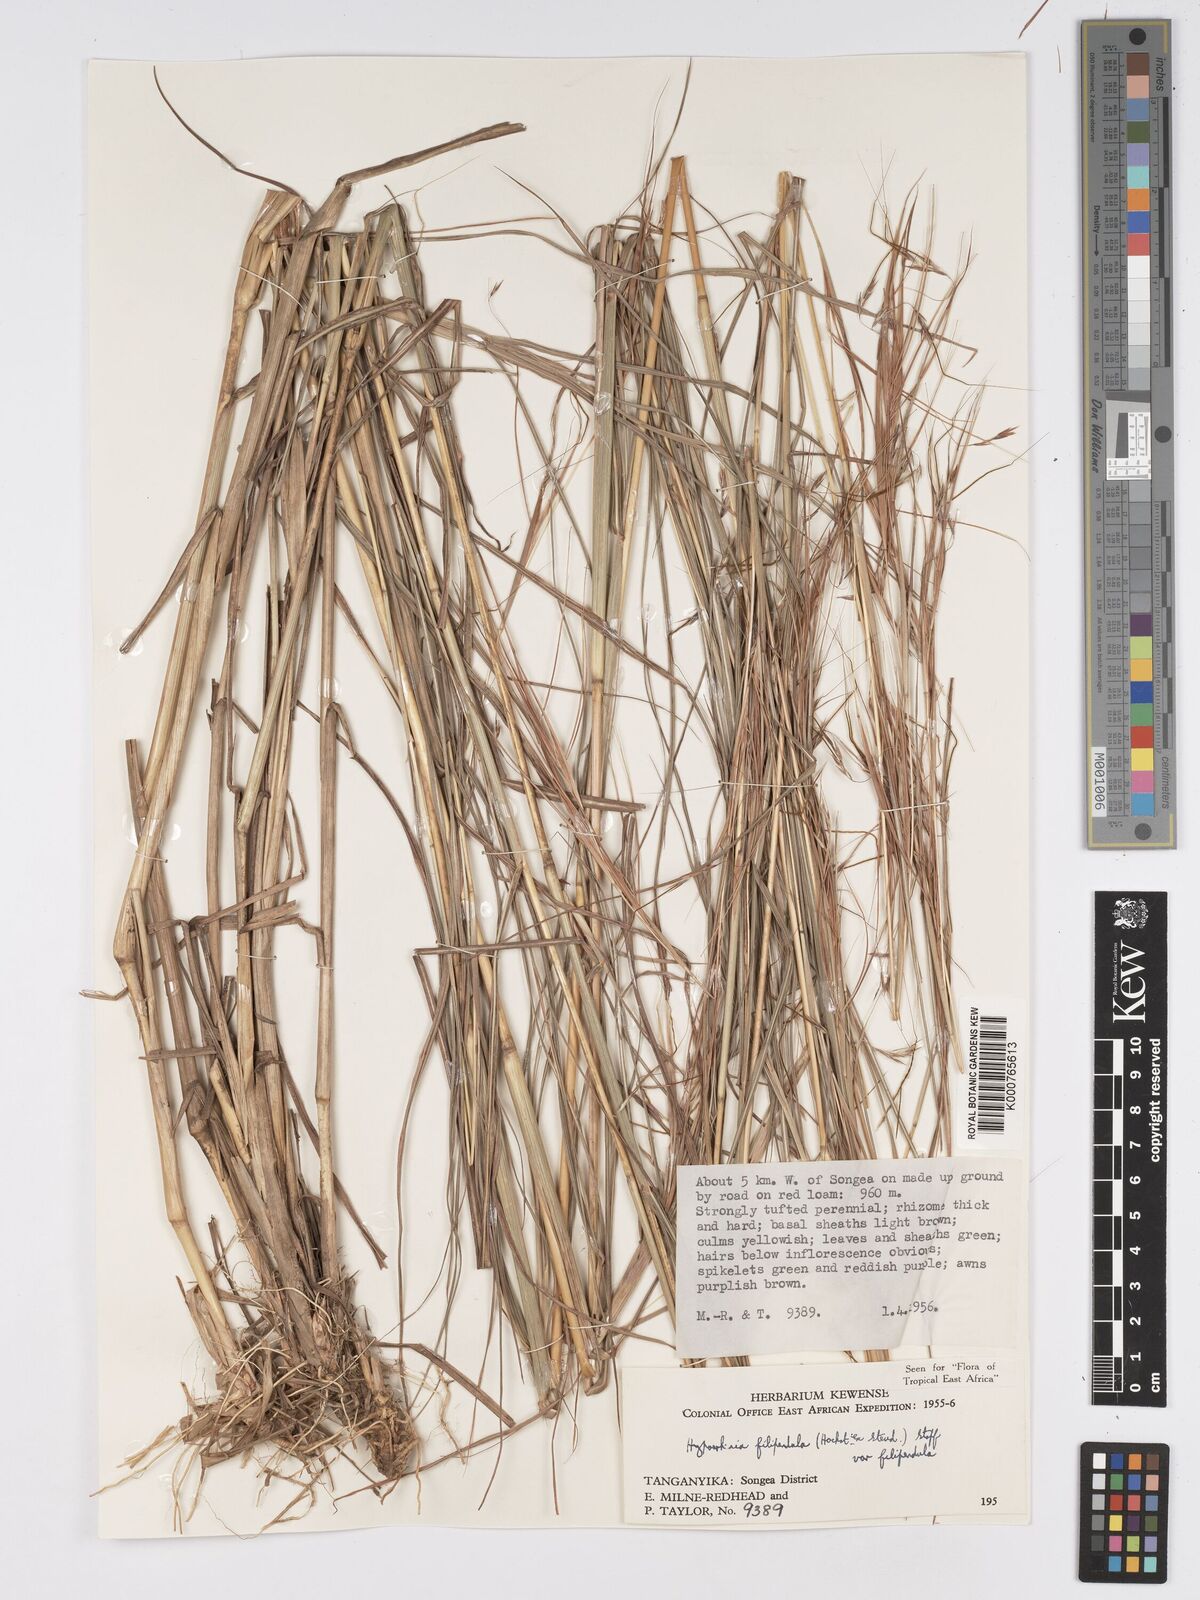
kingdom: Plantae
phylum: Tracheophyta
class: Liliopsida
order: Poales
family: Poaceae
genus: Hyparrhenia
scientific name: Hyparrhenia filipendula
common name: Tambookie grass
